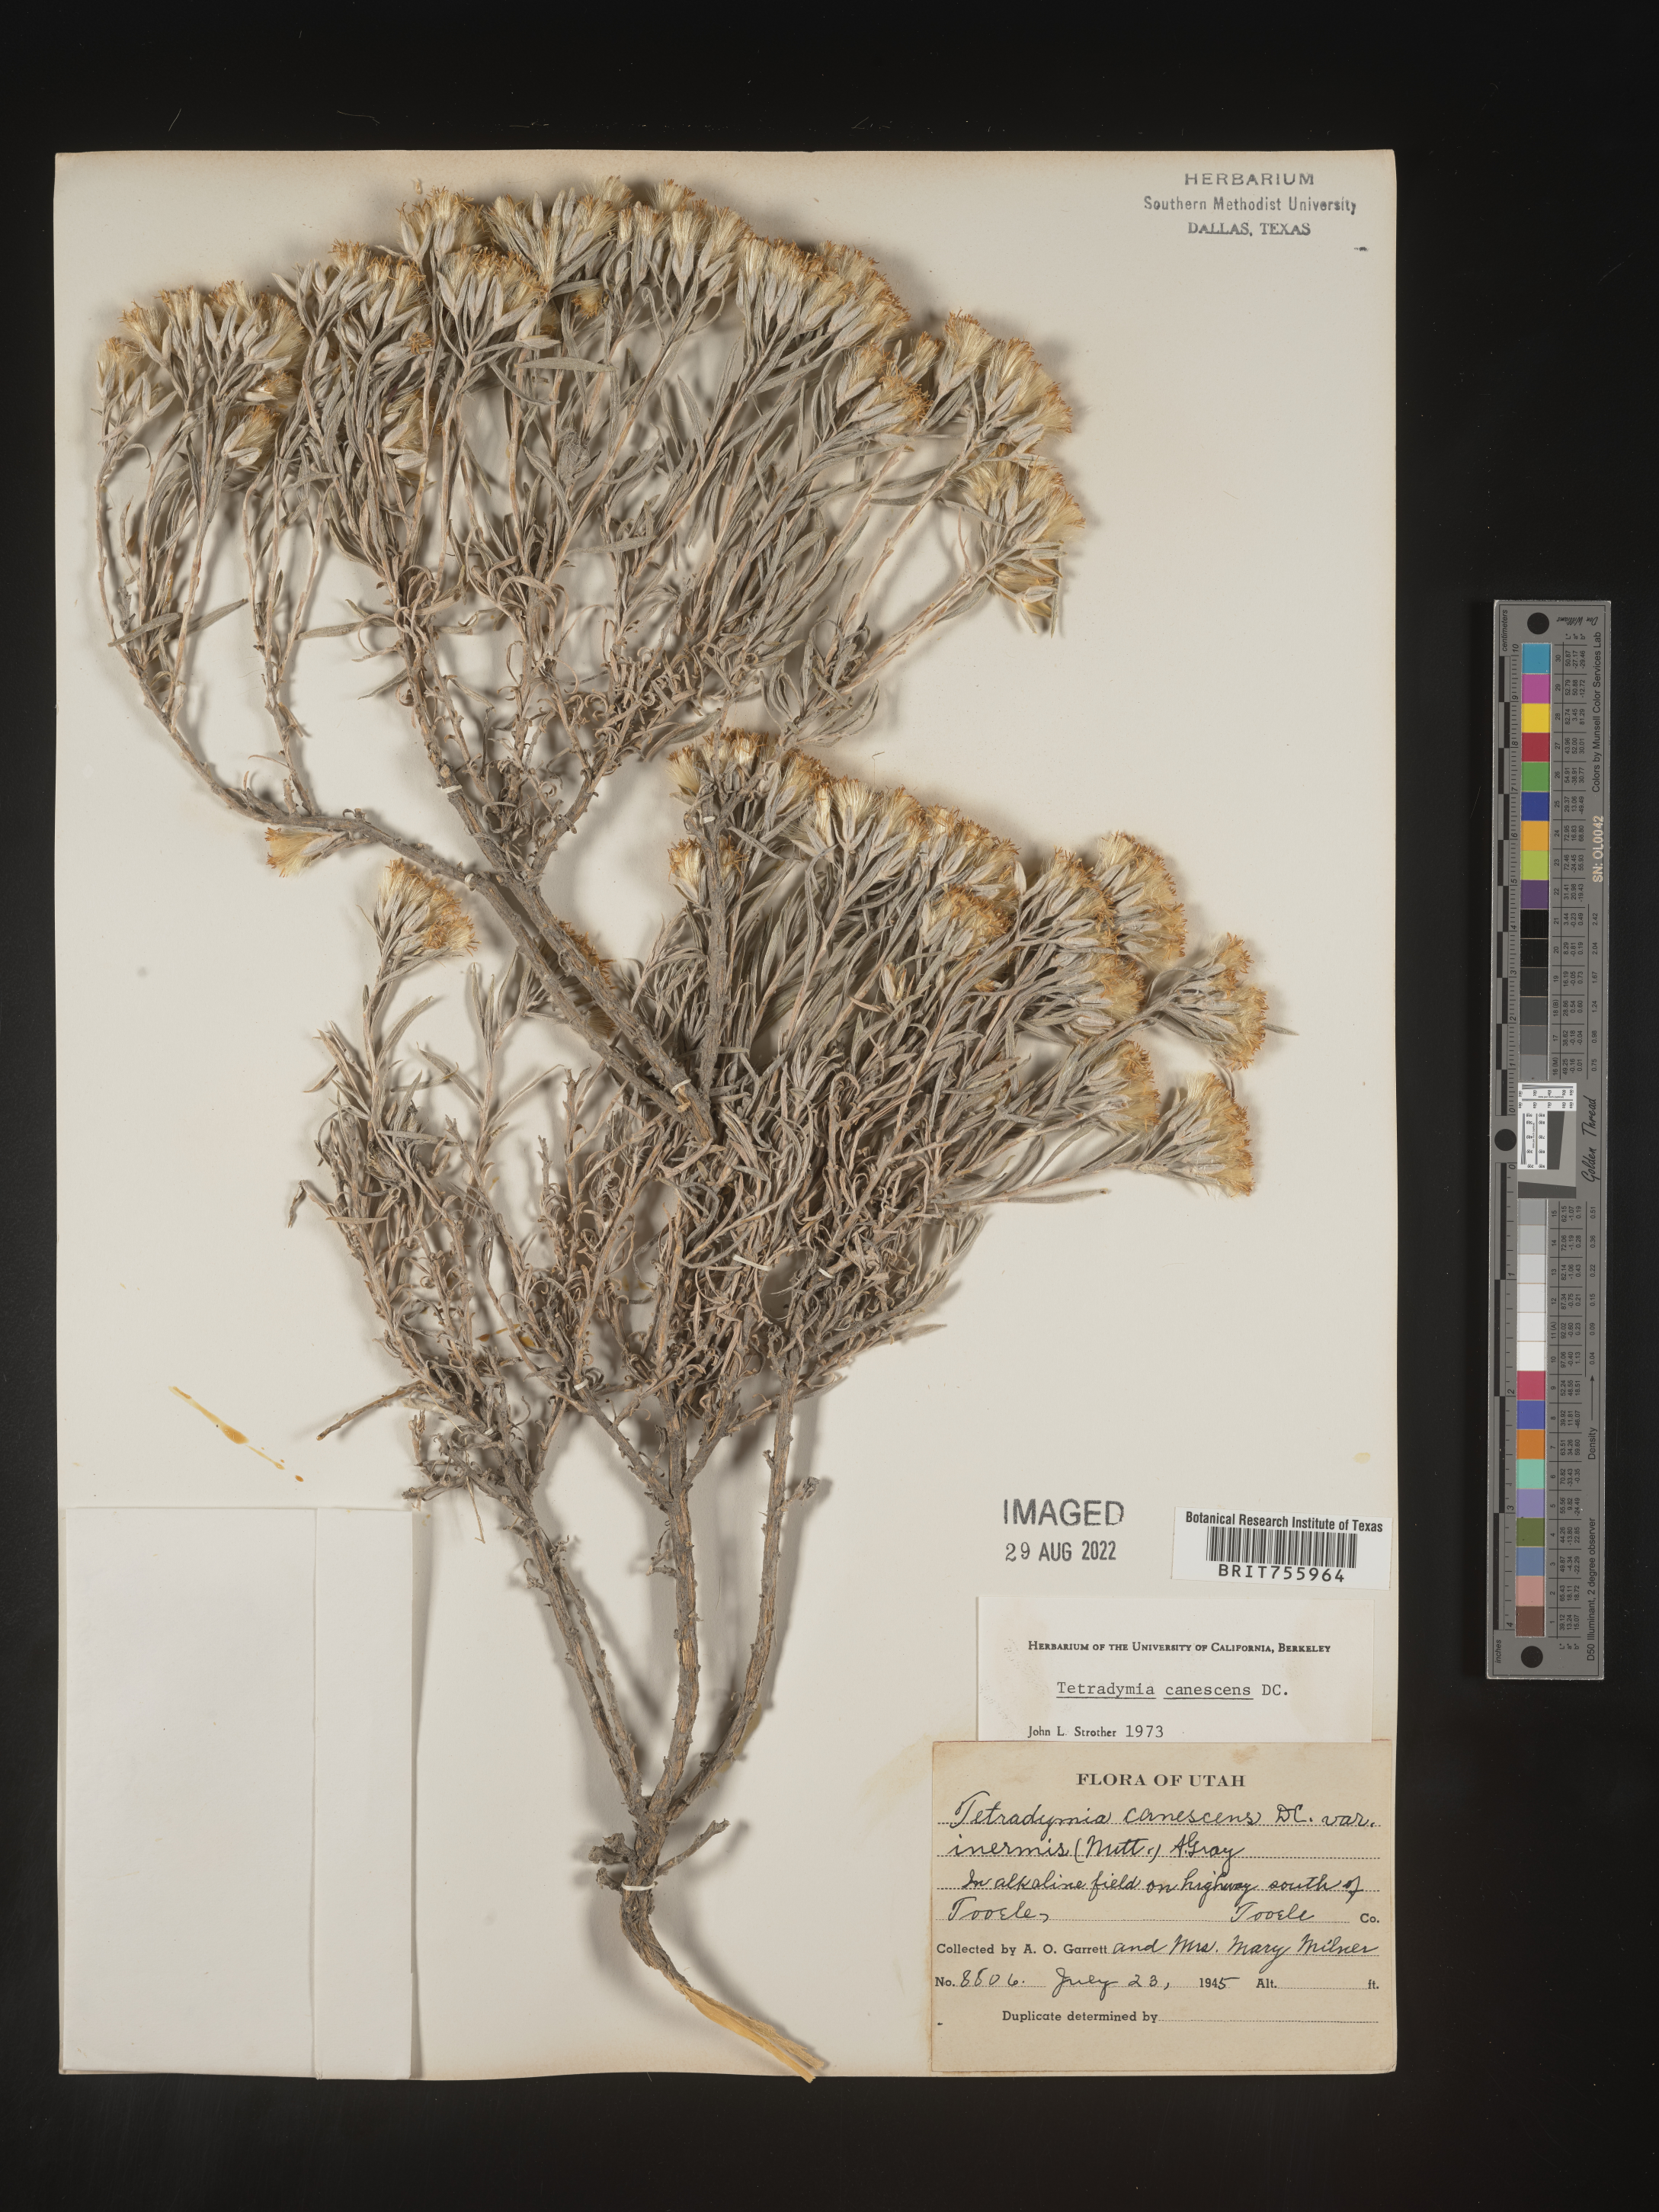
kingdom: Plantae
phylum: Tracheophyta
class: Magnoliopsida
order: Asterales
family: Asteraceae
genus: Tetradymia
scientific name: Tetradymia canescens
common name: Spineless horsebrush
